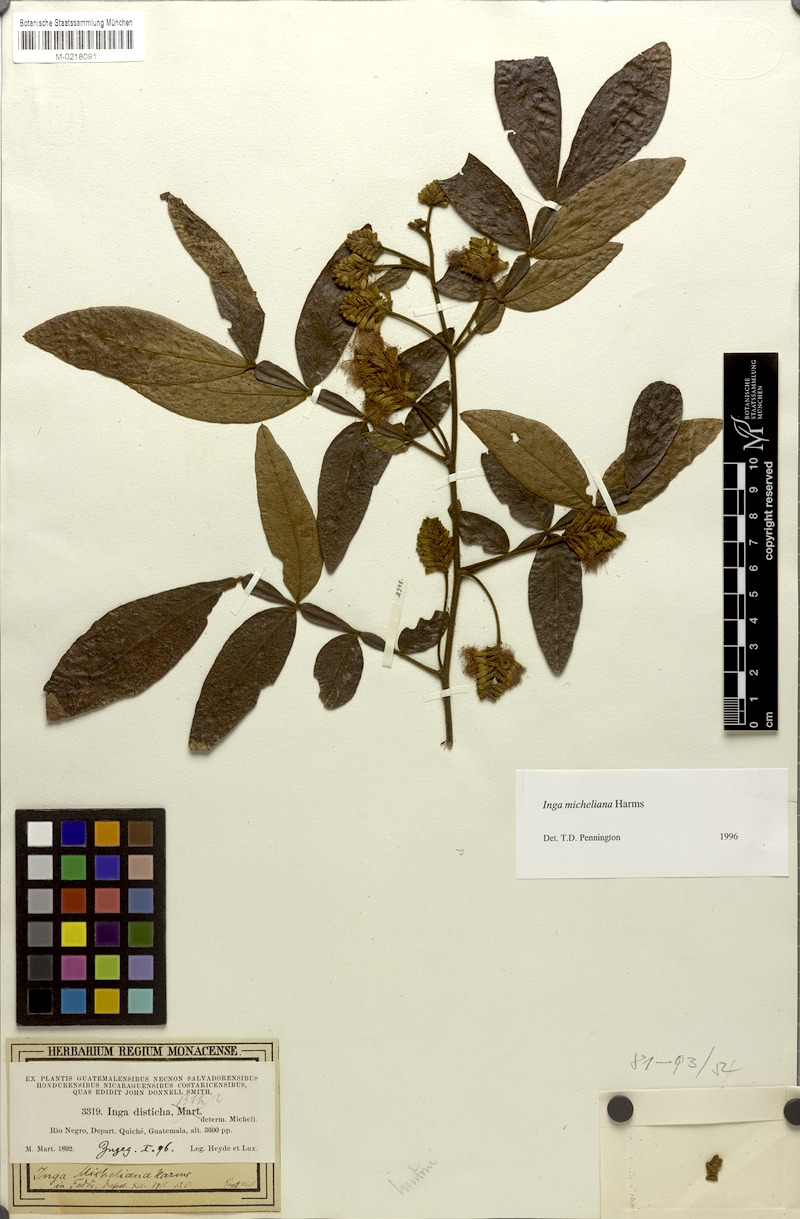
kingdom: Plantae
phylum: Tracheophyta
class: Magnoliopsida
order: Fabales
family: Fabaceae
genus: Inga
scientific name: Inga flexuosa
